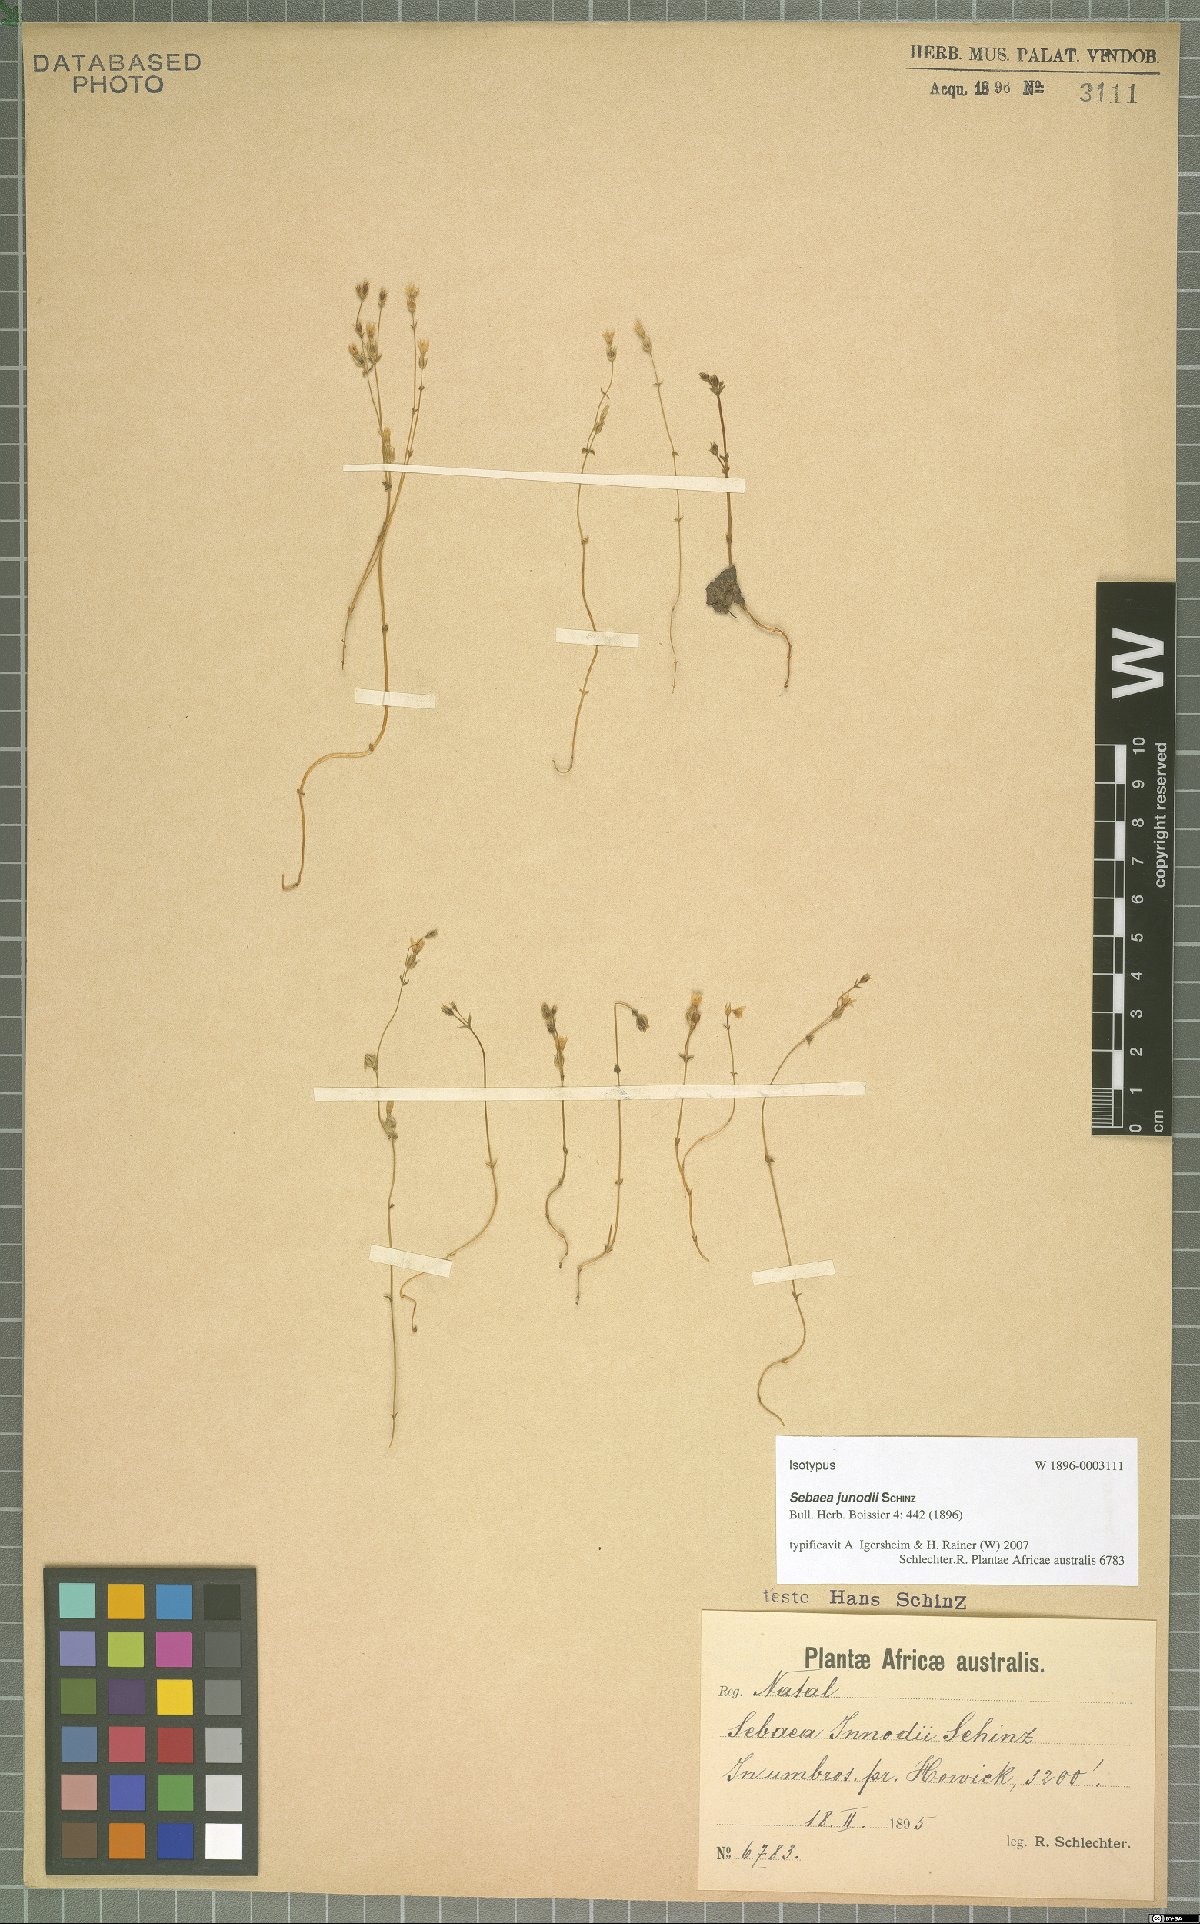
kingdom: Plantae
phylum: Tracheophyta
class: Magnoliopsida
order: Gentianales
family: Gentianaceae
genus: Sebaea
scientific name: Sebaea junodii
